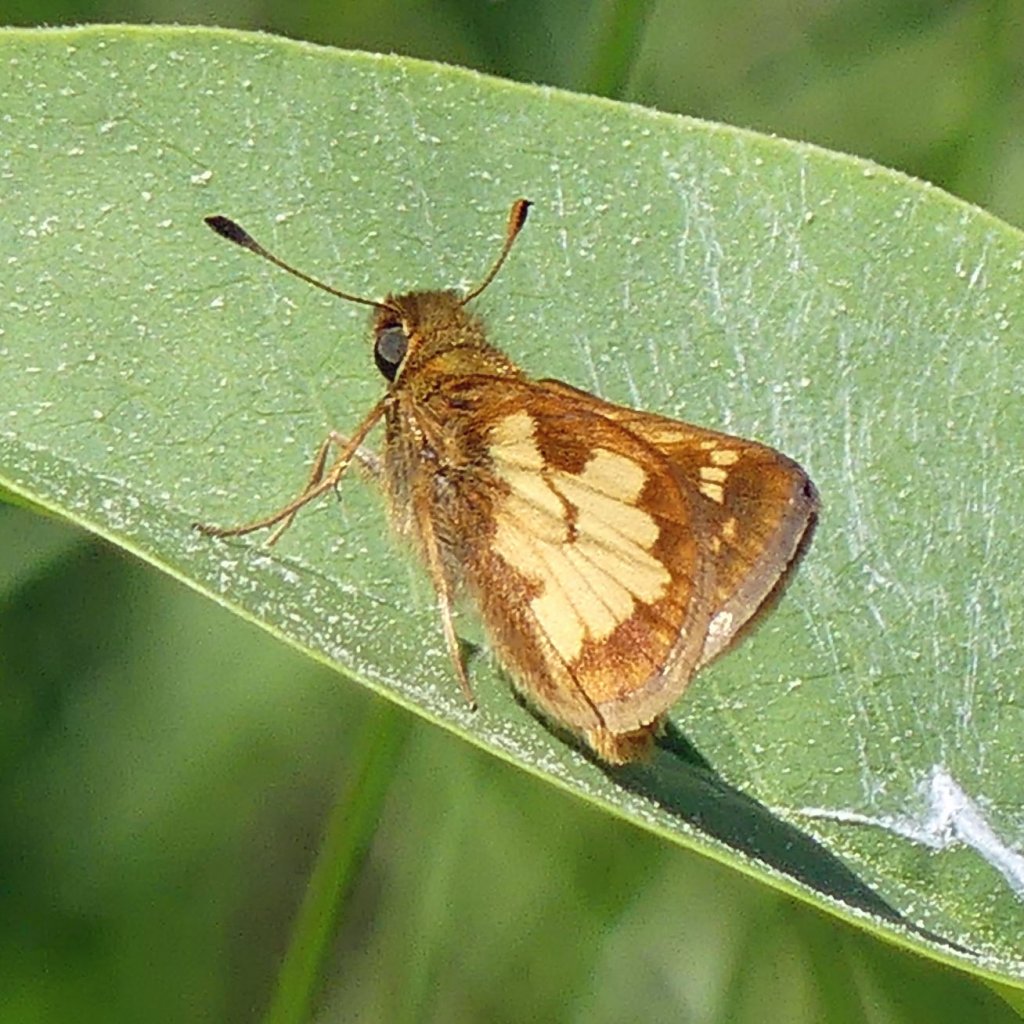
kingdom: Animalia
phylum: Arthropoda
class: Insecta
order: Lepidoptera
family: Hesperiidae
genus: Polites
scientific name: Polites coras
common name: Peck's Skipper
